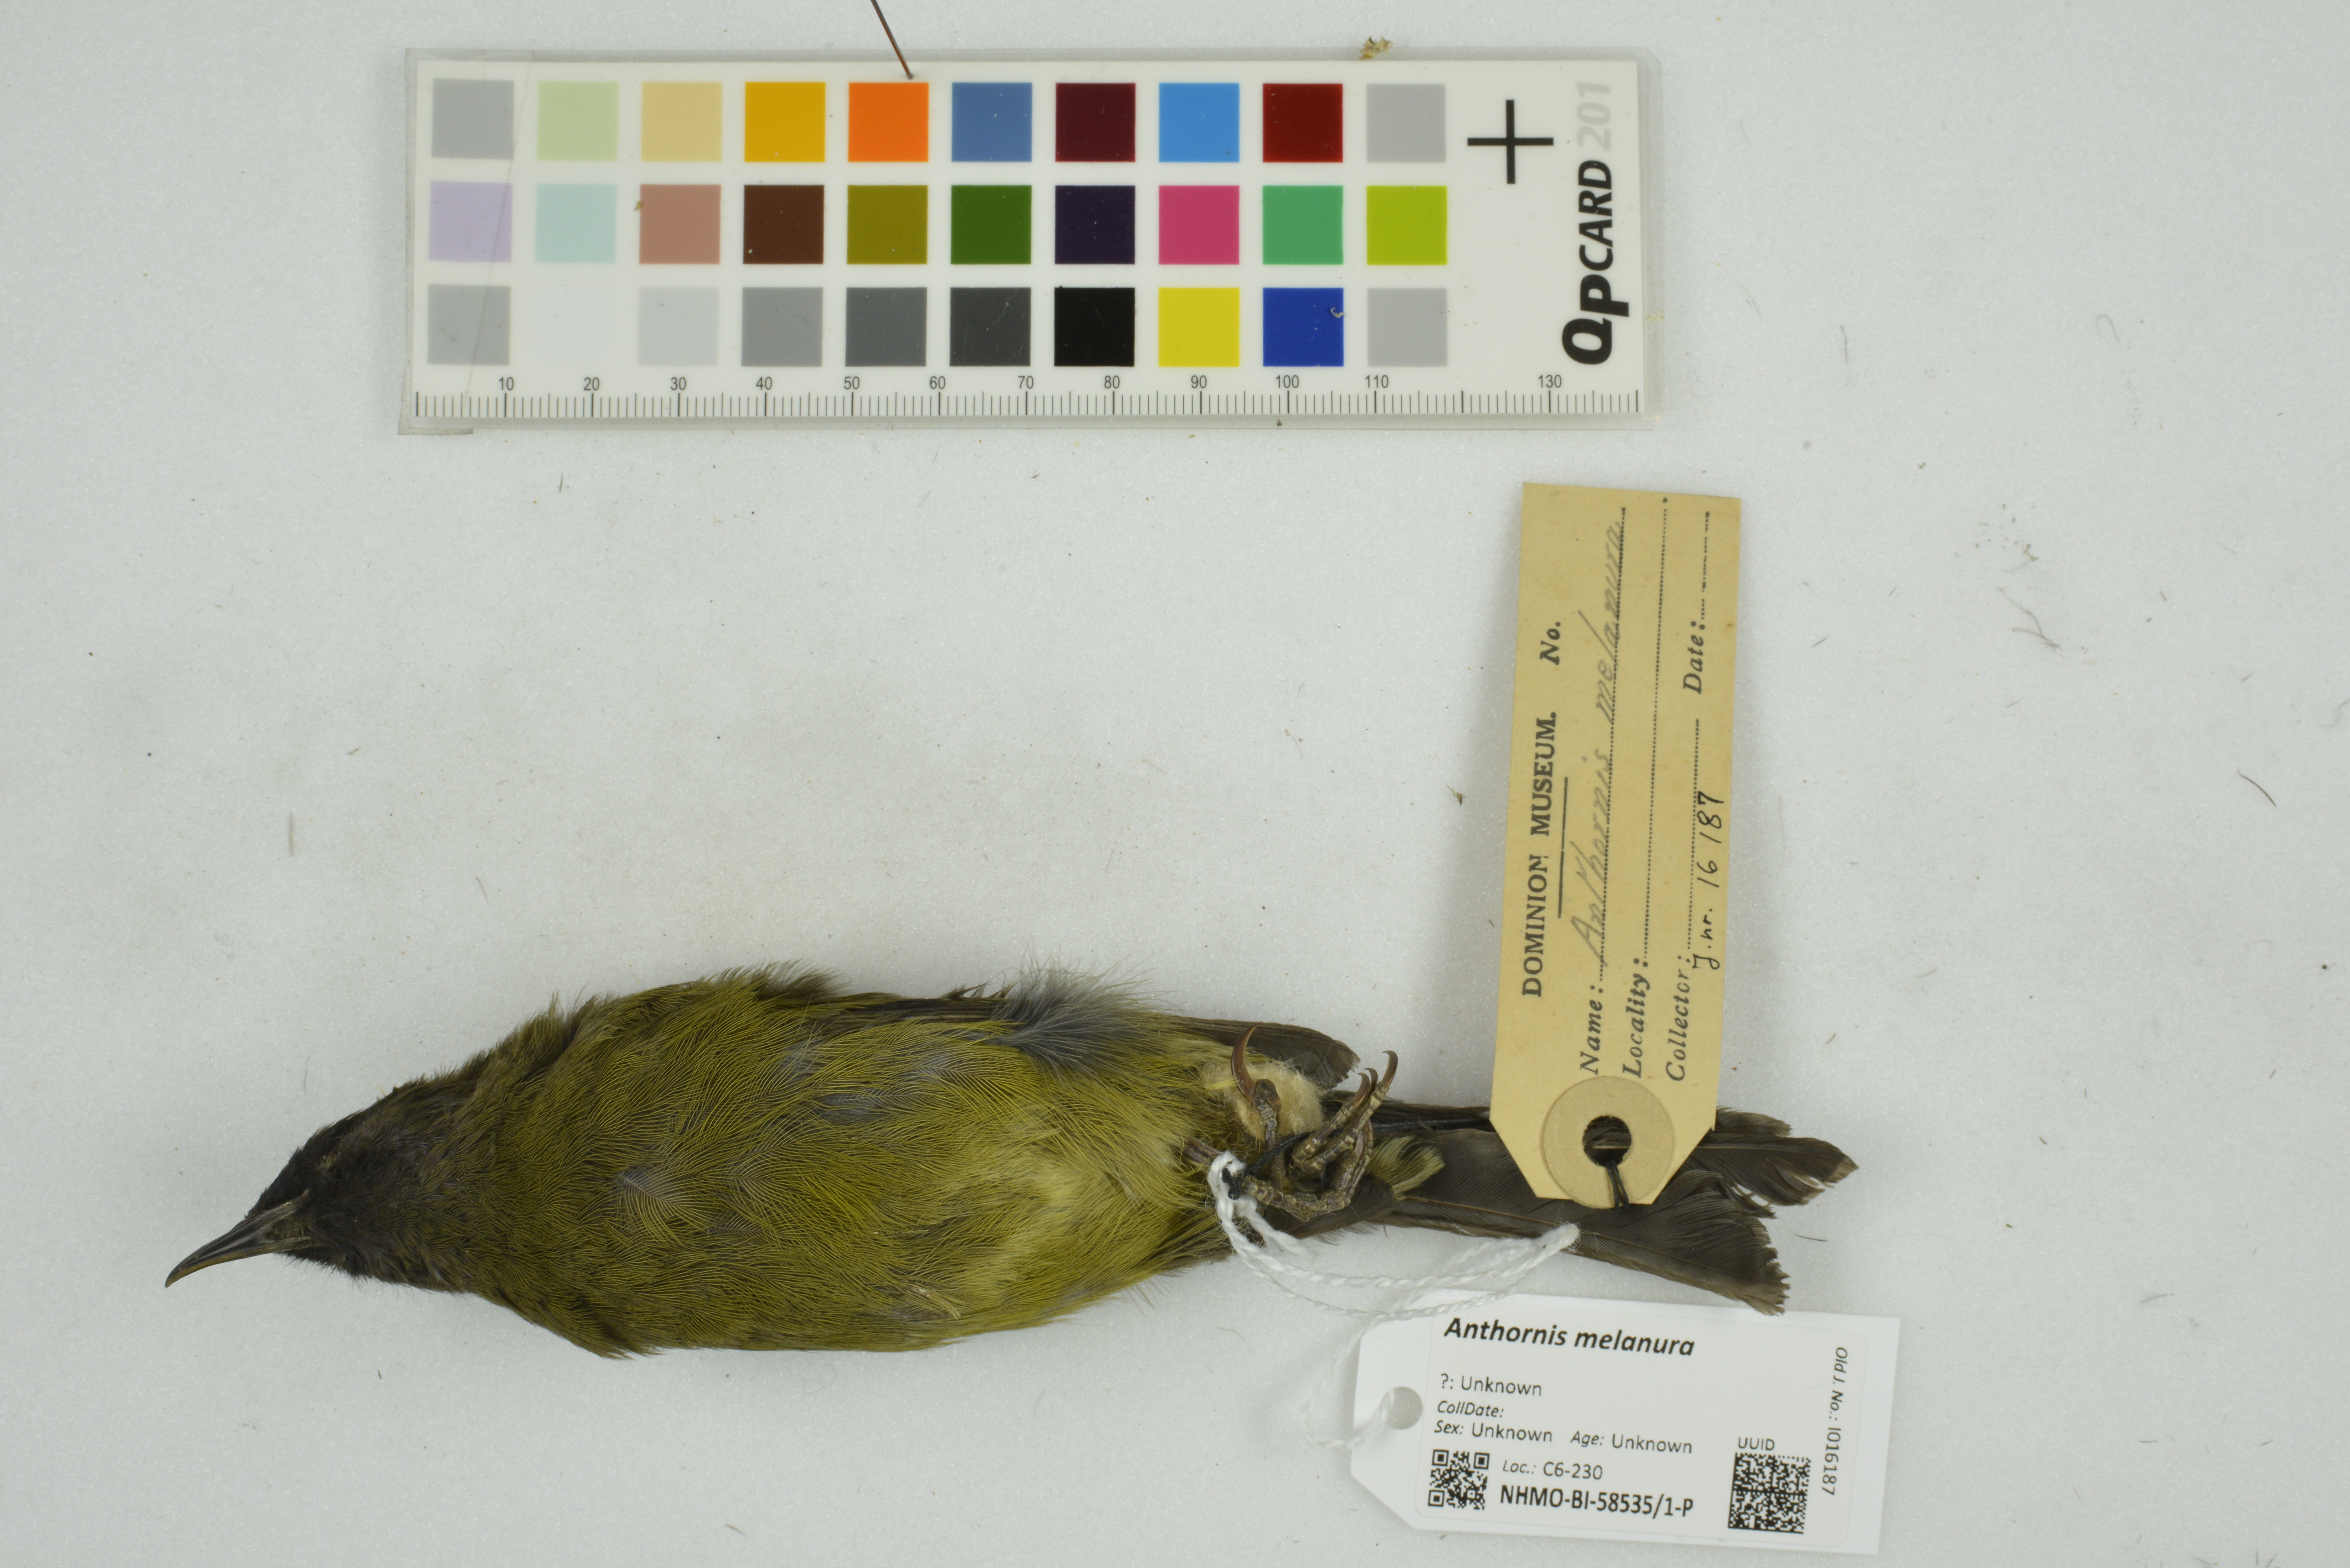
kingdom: Animalia
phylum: Chordata
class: Aves
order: Passeriformes
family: Meliphagidae
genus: Anthornis
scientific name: Anthornis melanura
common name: New zealand bellbird
